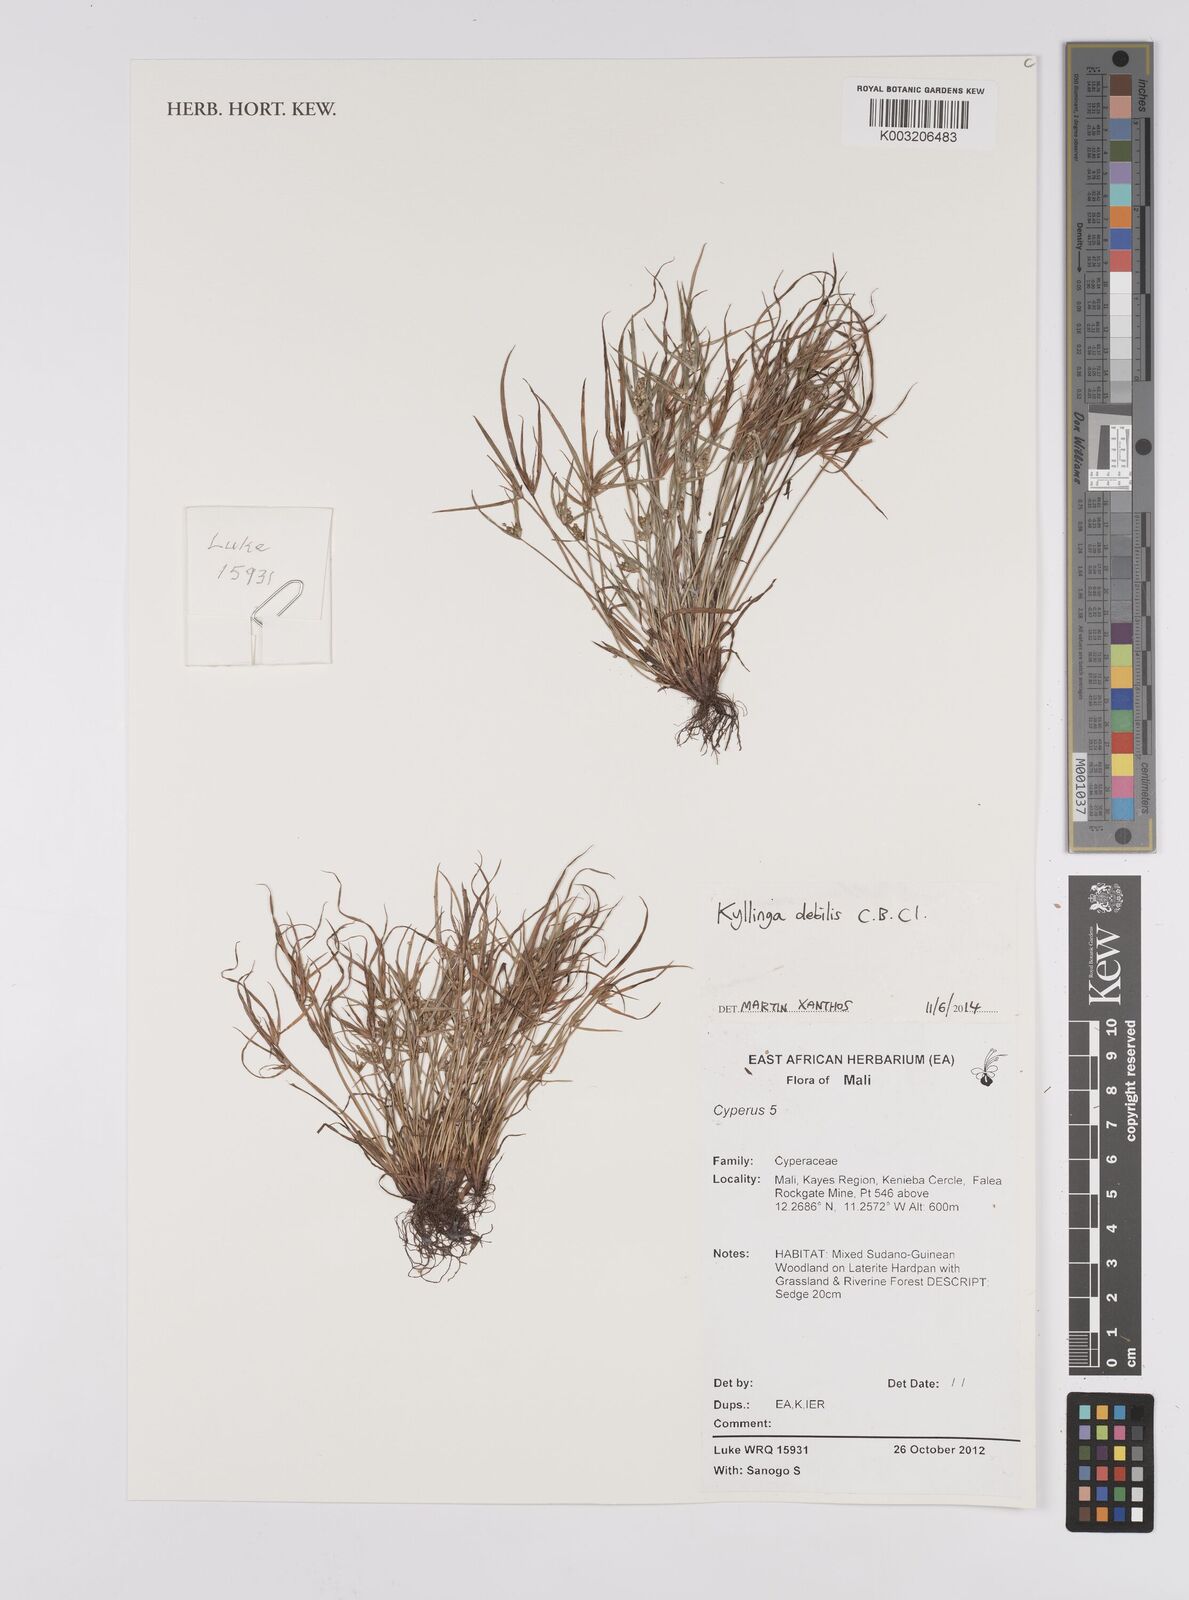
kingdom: Plantae
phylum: Tracheophyta
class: Liliopsida
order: Poales
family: Cyperaceae
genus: Cyperus
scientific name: Cyperus enervis
